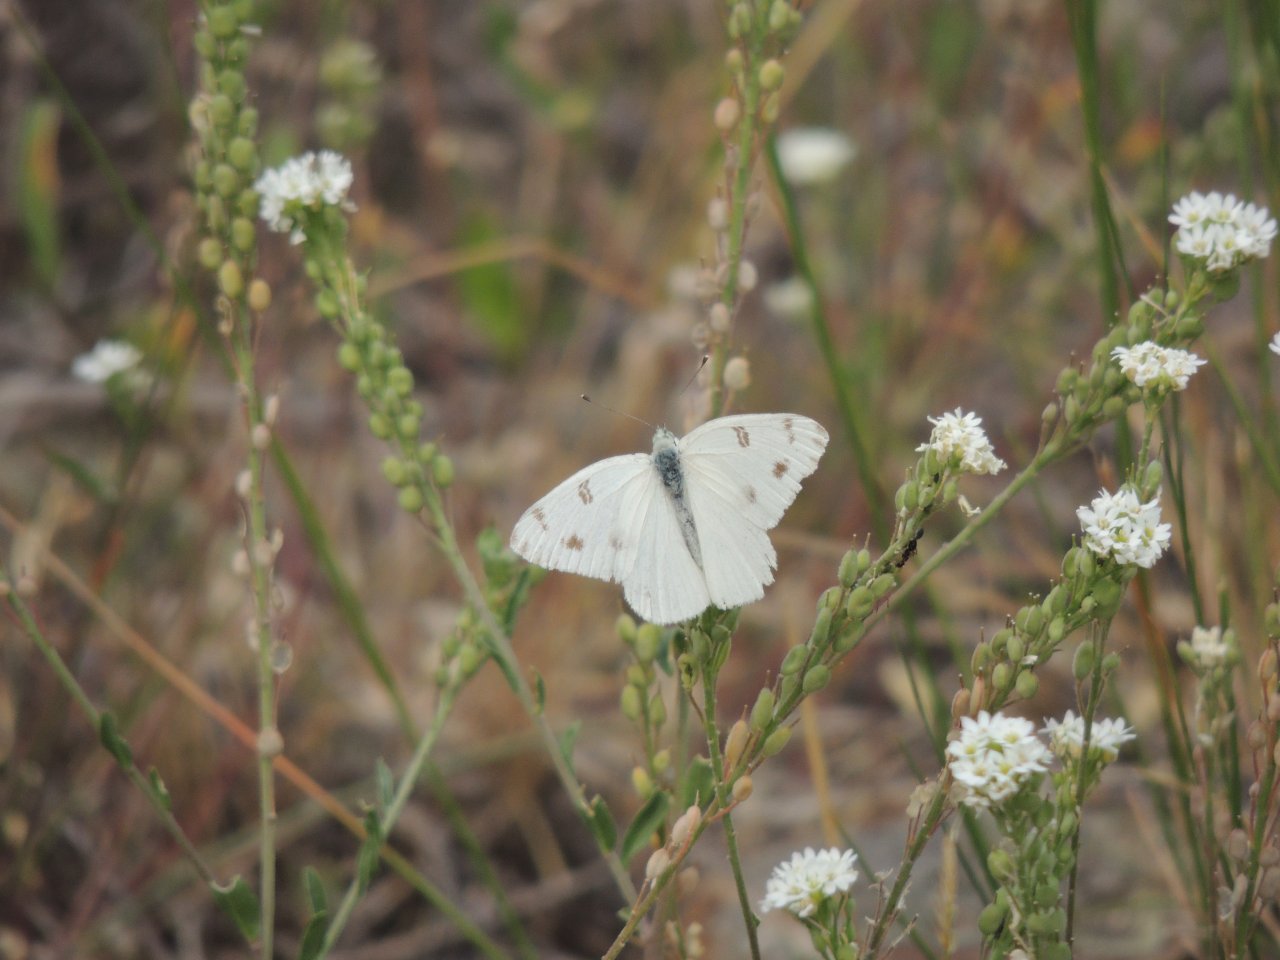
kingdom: Animalia
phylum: Arthropoda
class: Insecta
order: Lepidoptera
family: Pieridae
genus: Pontia
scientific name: Pontia occidentalis
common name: Western White
